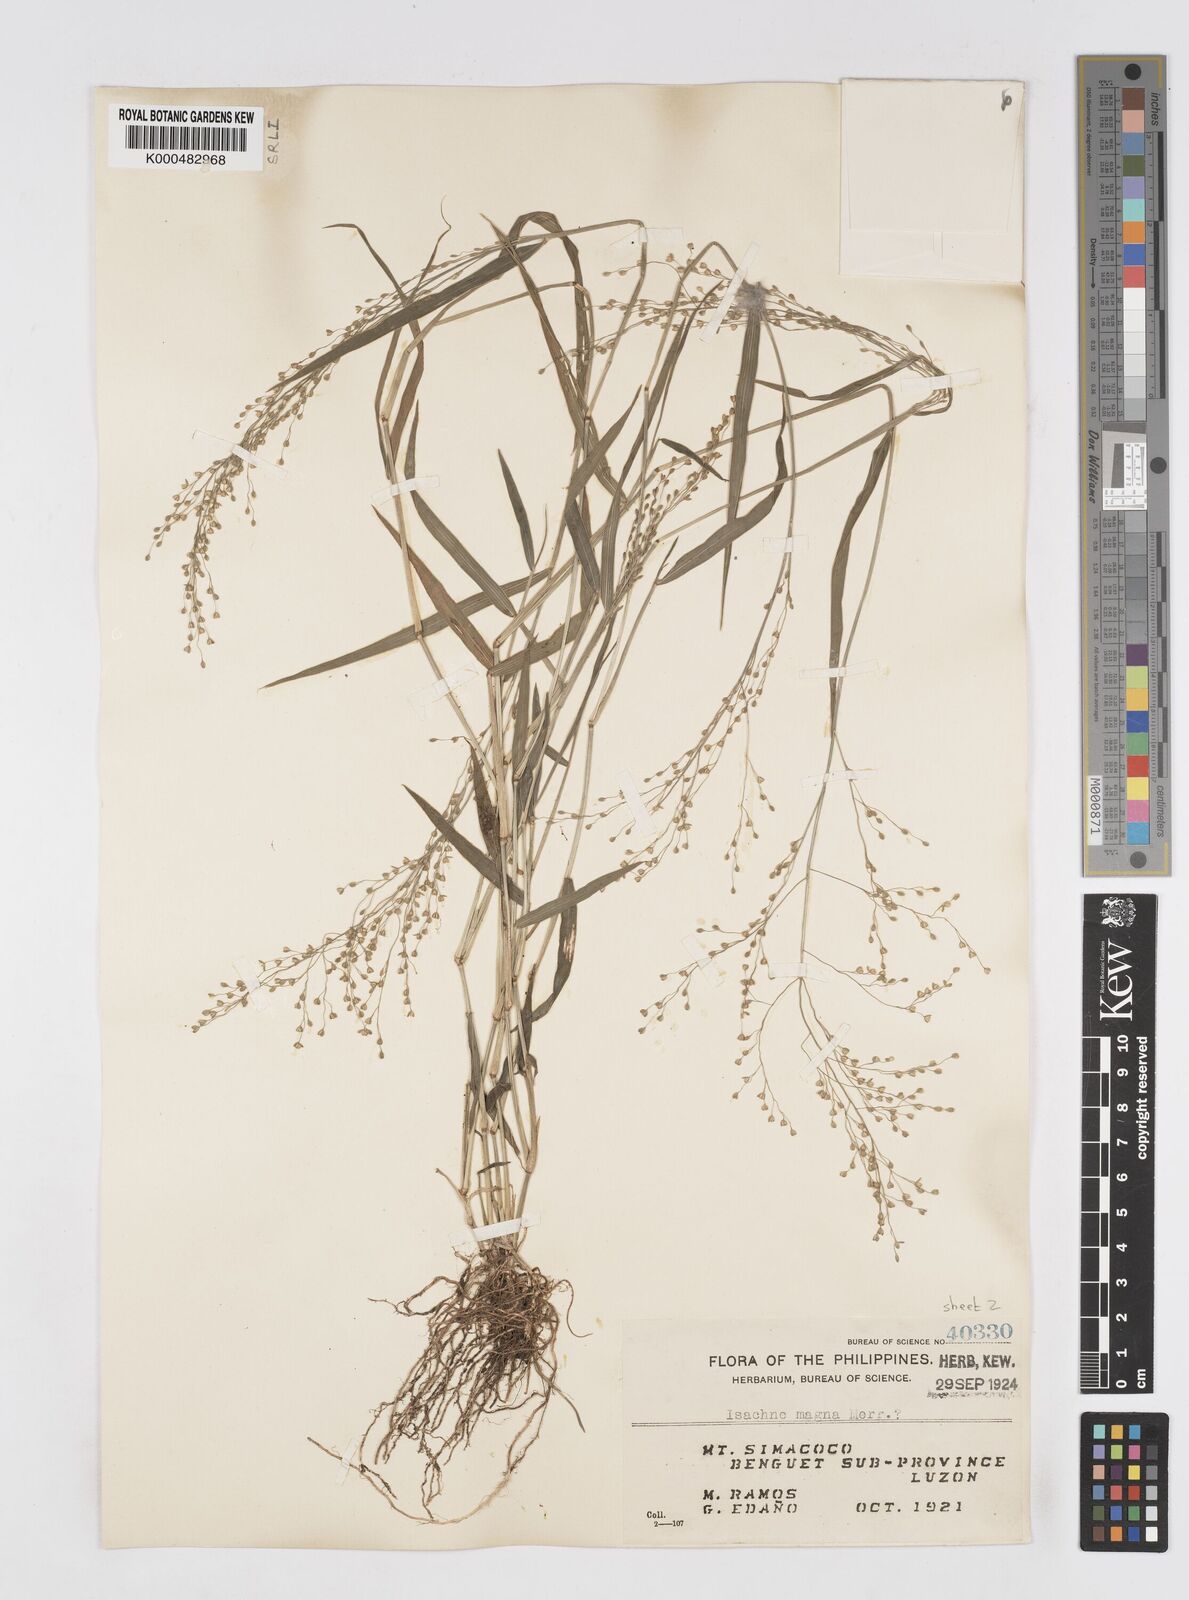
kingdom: Plantae
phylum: Tracheophyta
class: Liliopsida
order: Poales
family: Poaceae
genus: Isachne
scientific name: Isachne clarkei
